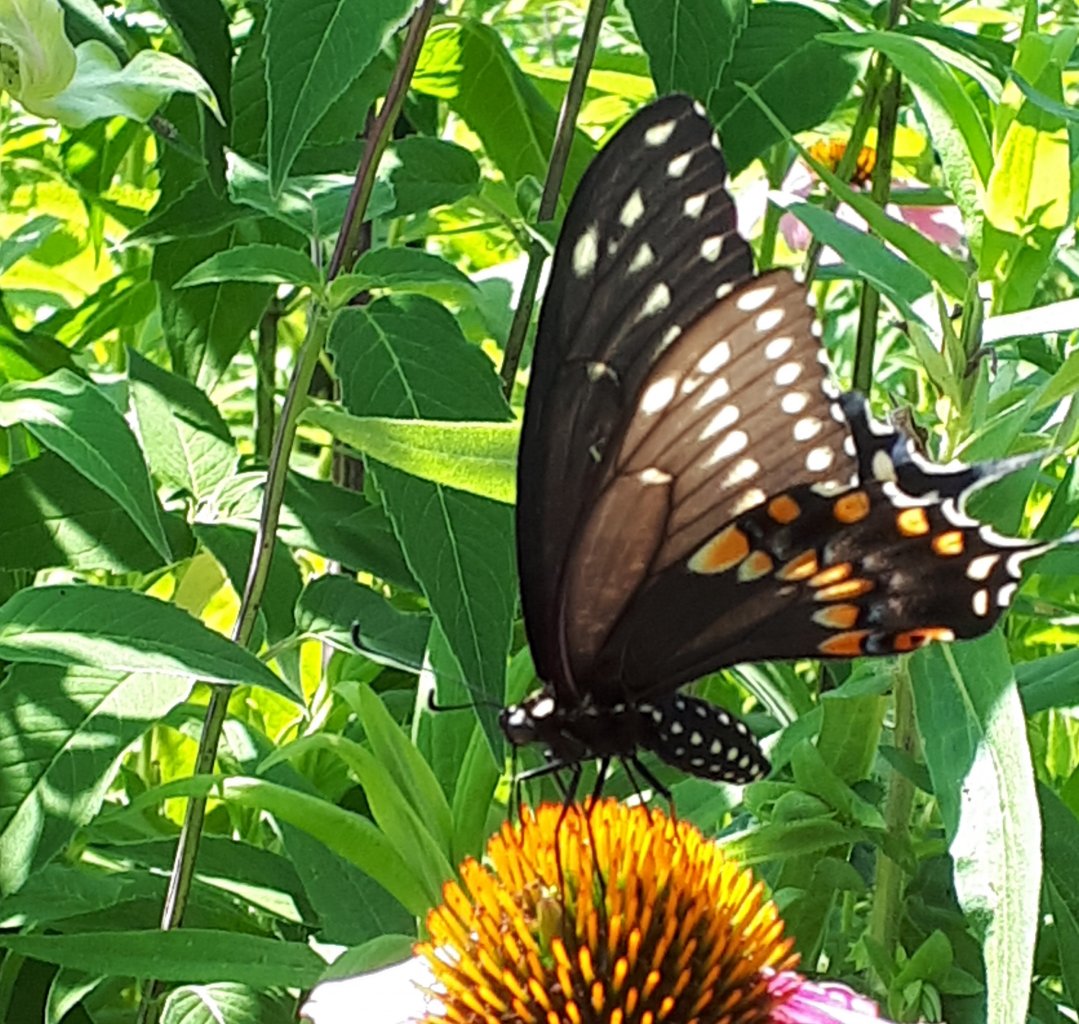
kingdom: Animalia
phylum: Arthropoda
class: Insecta
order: Lepidoptera
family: Papilionidae
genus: Papilio
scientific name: Papilio polyxenes
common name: Black Swallowtail
